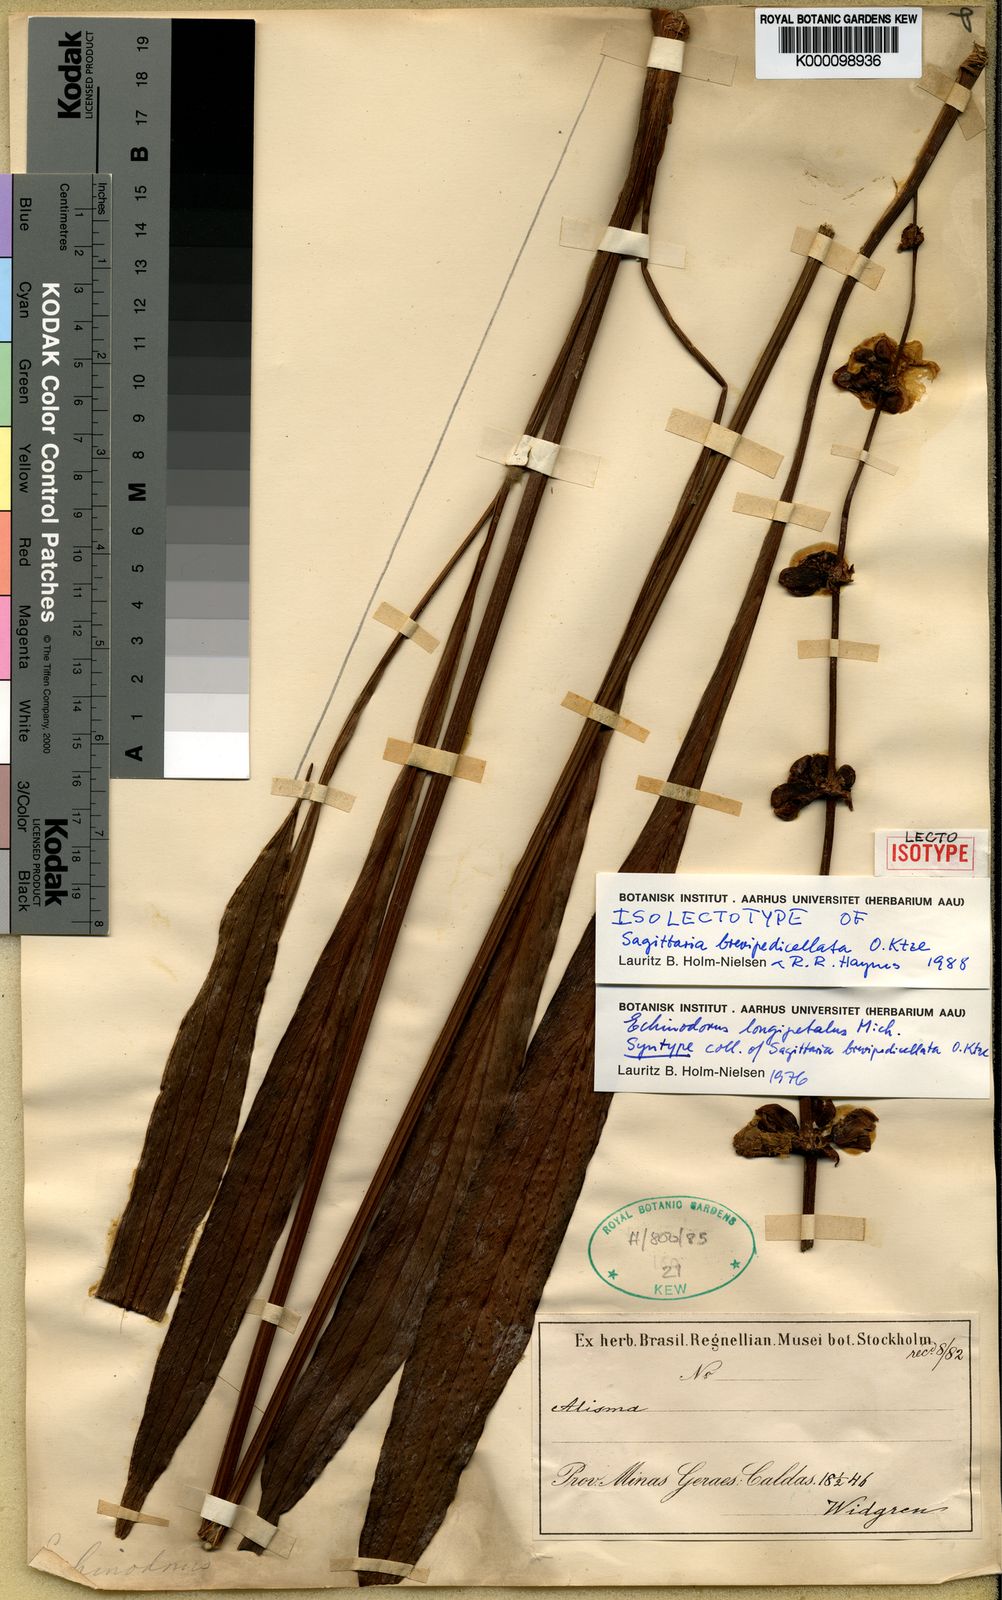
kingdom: Plantae
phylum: Tracheophyta
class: Liliopsida
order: Alismatales
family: Alismataceae
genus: Aquarius
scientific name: Aquarius longipetalus
